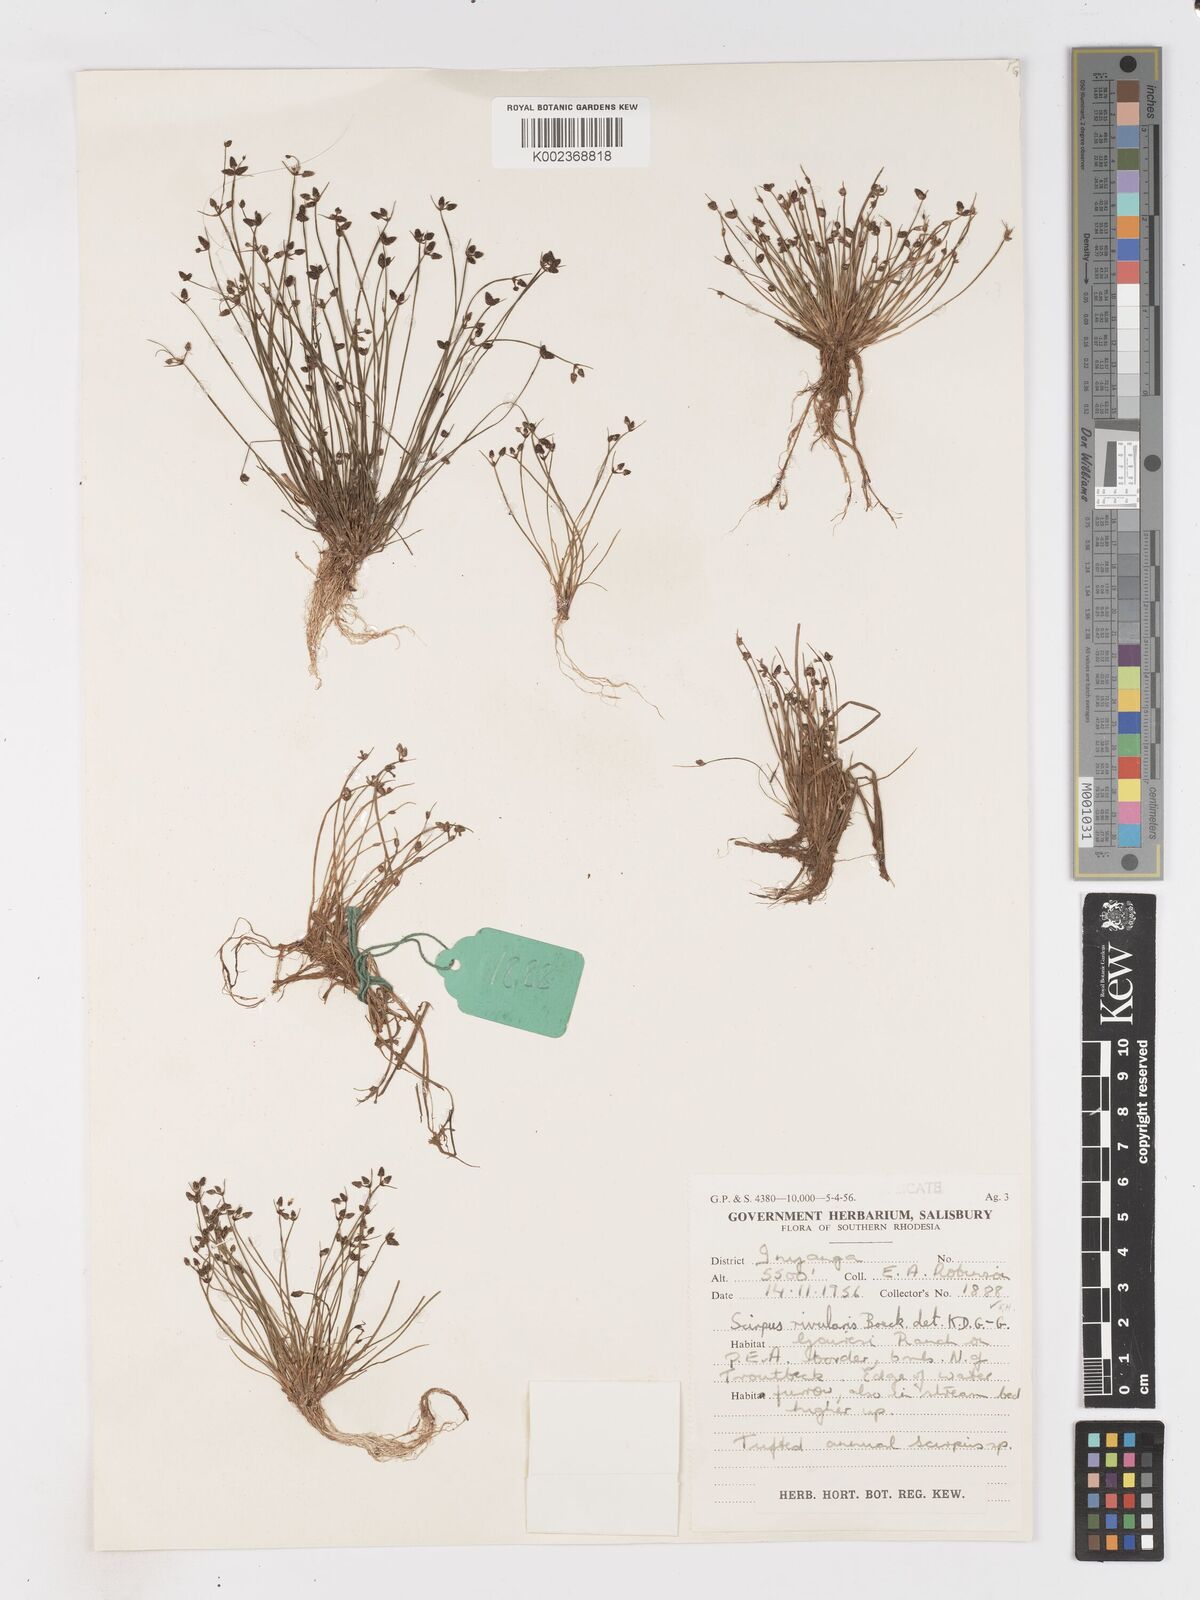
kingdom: Plantae
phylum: Tracheophyta
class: Liliopsida
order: Poales
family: Cyperaceae
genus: Isolepis
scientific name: Isolepis natans
